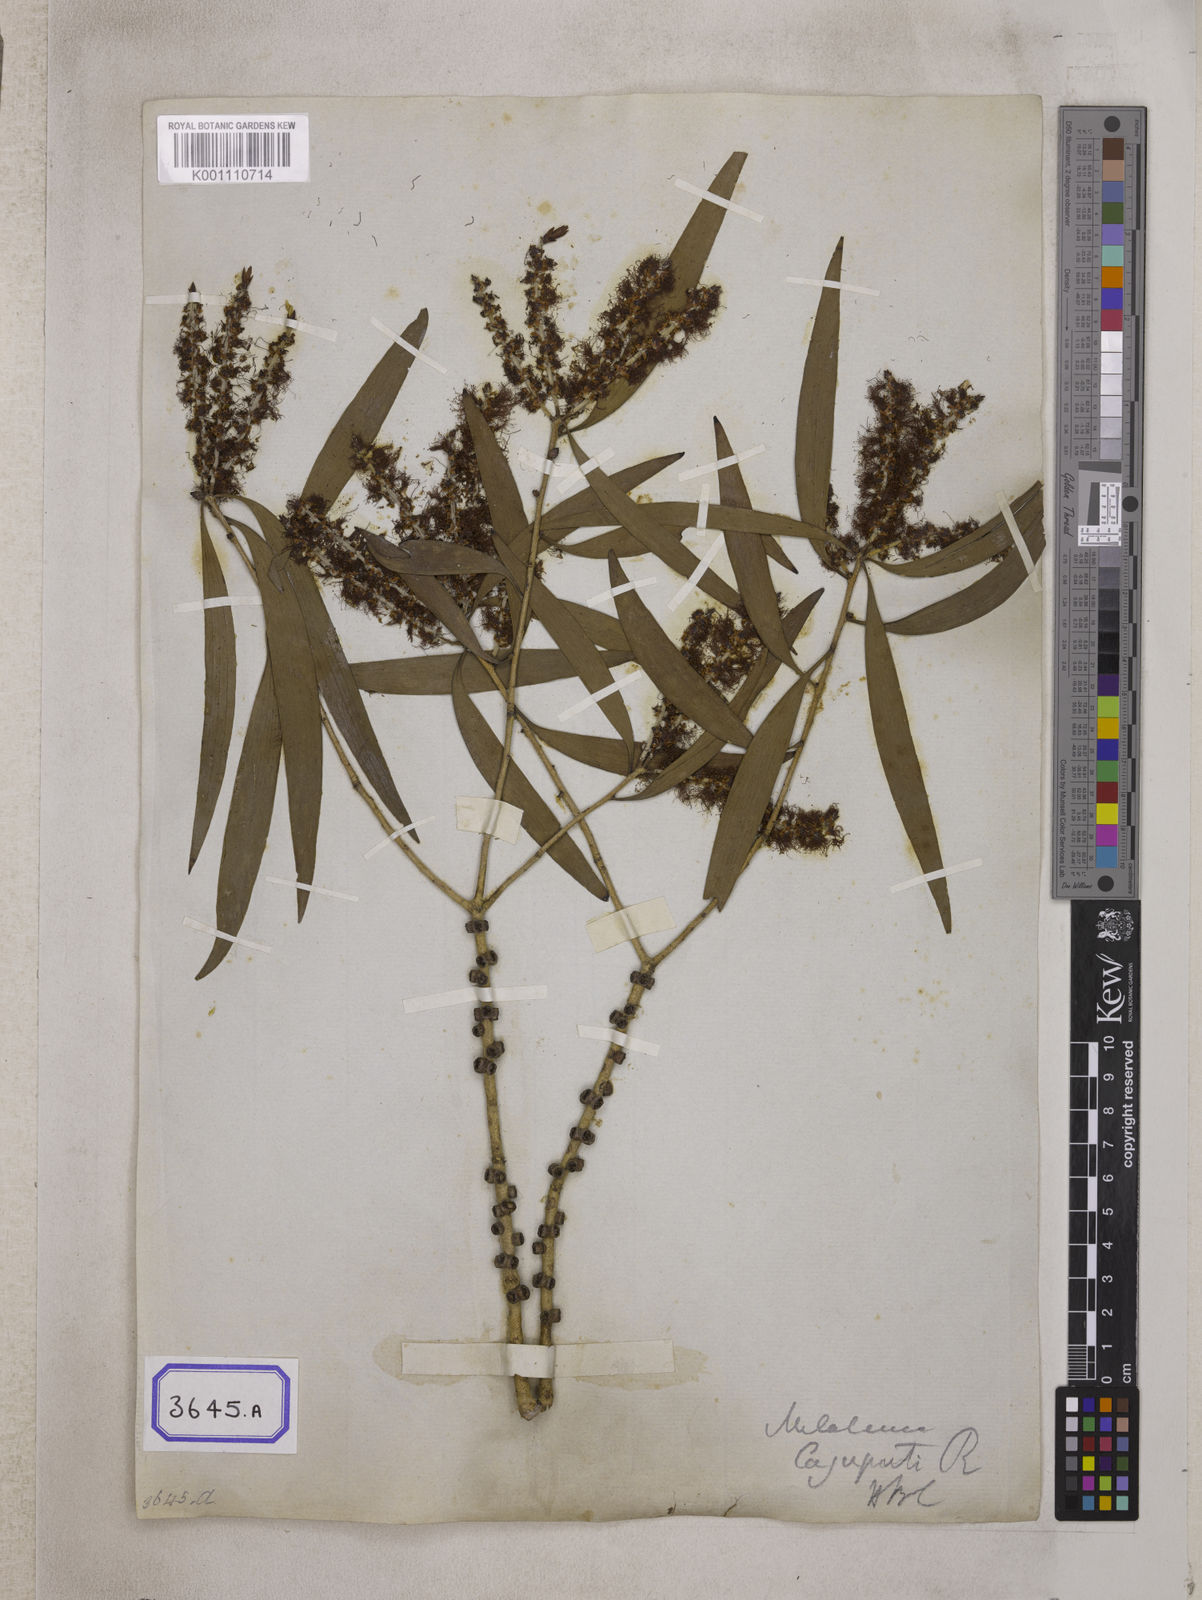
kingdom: Plantae
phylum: Tracheophyta
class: Magnoliopsida
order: Myrtales
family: Myrtaceae
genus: Melaleuca
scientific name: Melaleuca cajuputi
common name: Cajuput
